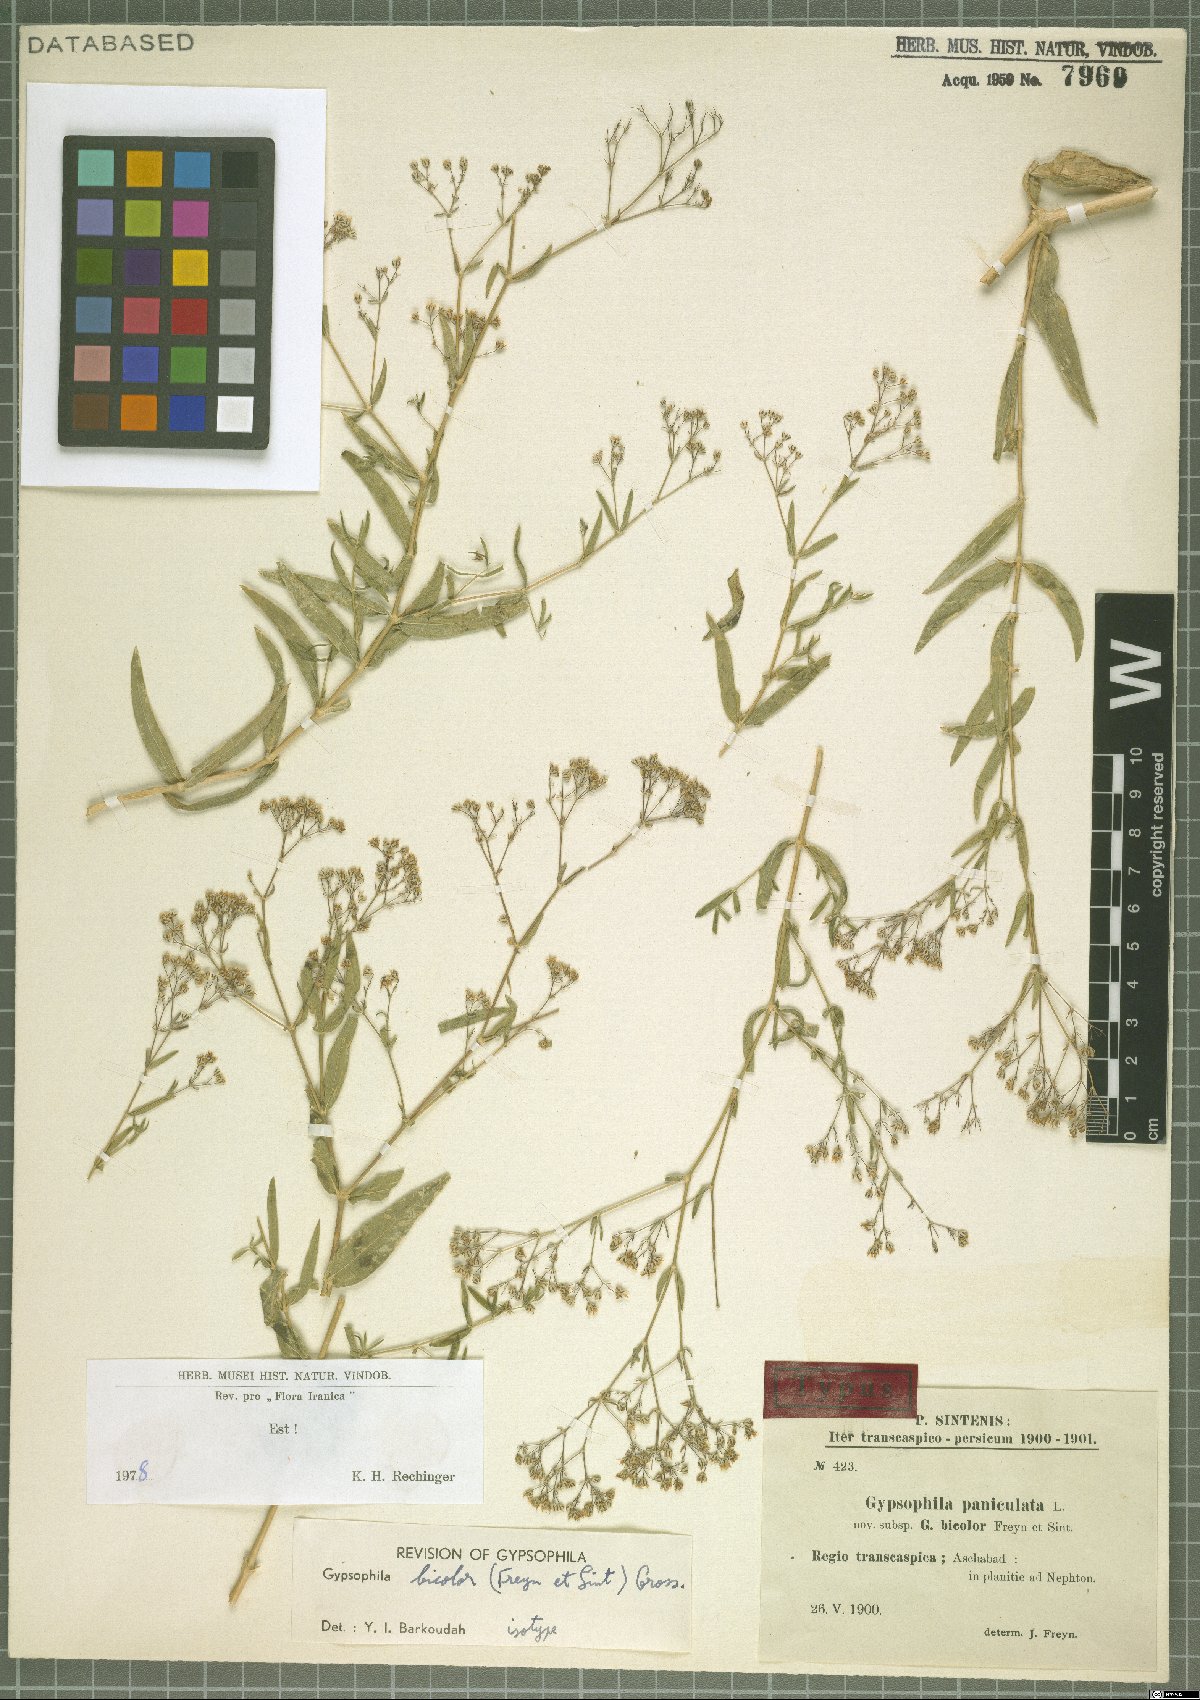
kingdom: Plantae
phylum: Tracheophyta
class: Magnoliopsida
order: Caryophyllales
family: Caryophyllaceae
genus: Gypsophila
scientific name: Gypsophila bicolor
